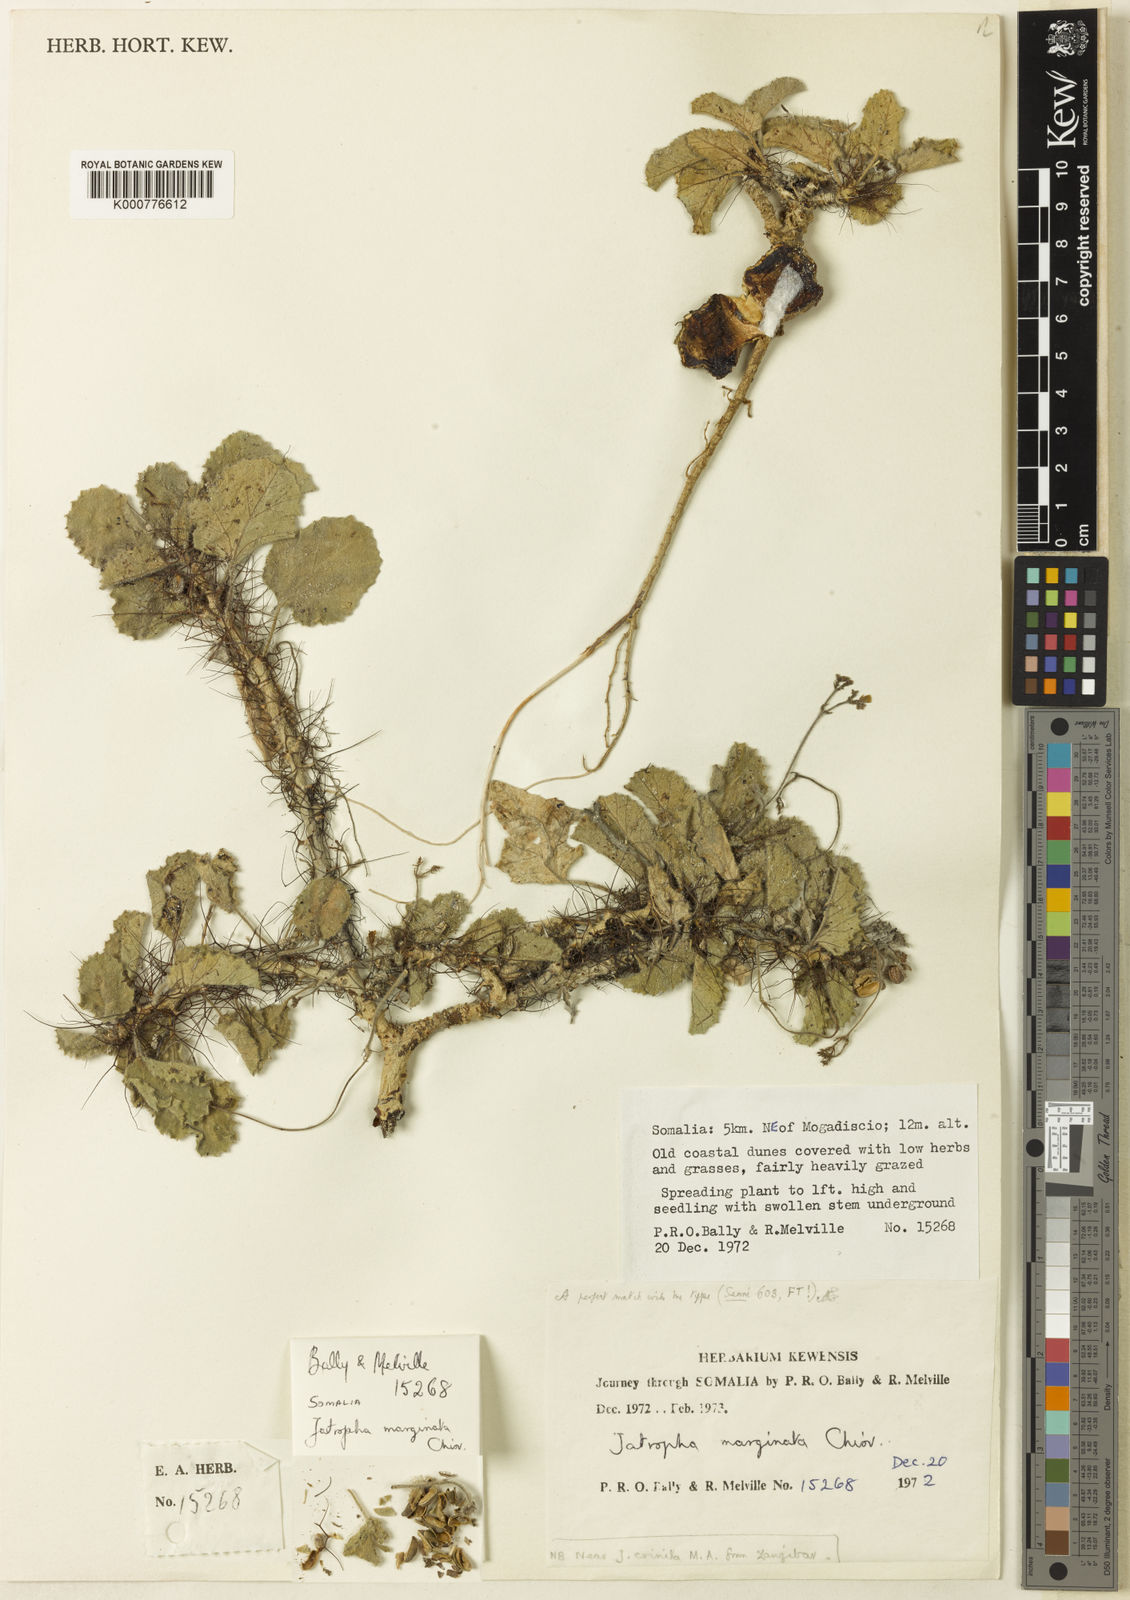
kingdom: Plantae
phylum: Tracheophyta
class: Magnoliopsida
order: Malpighiales
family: Euphorbiaceae
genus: Jatropha
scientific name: Jatropha
